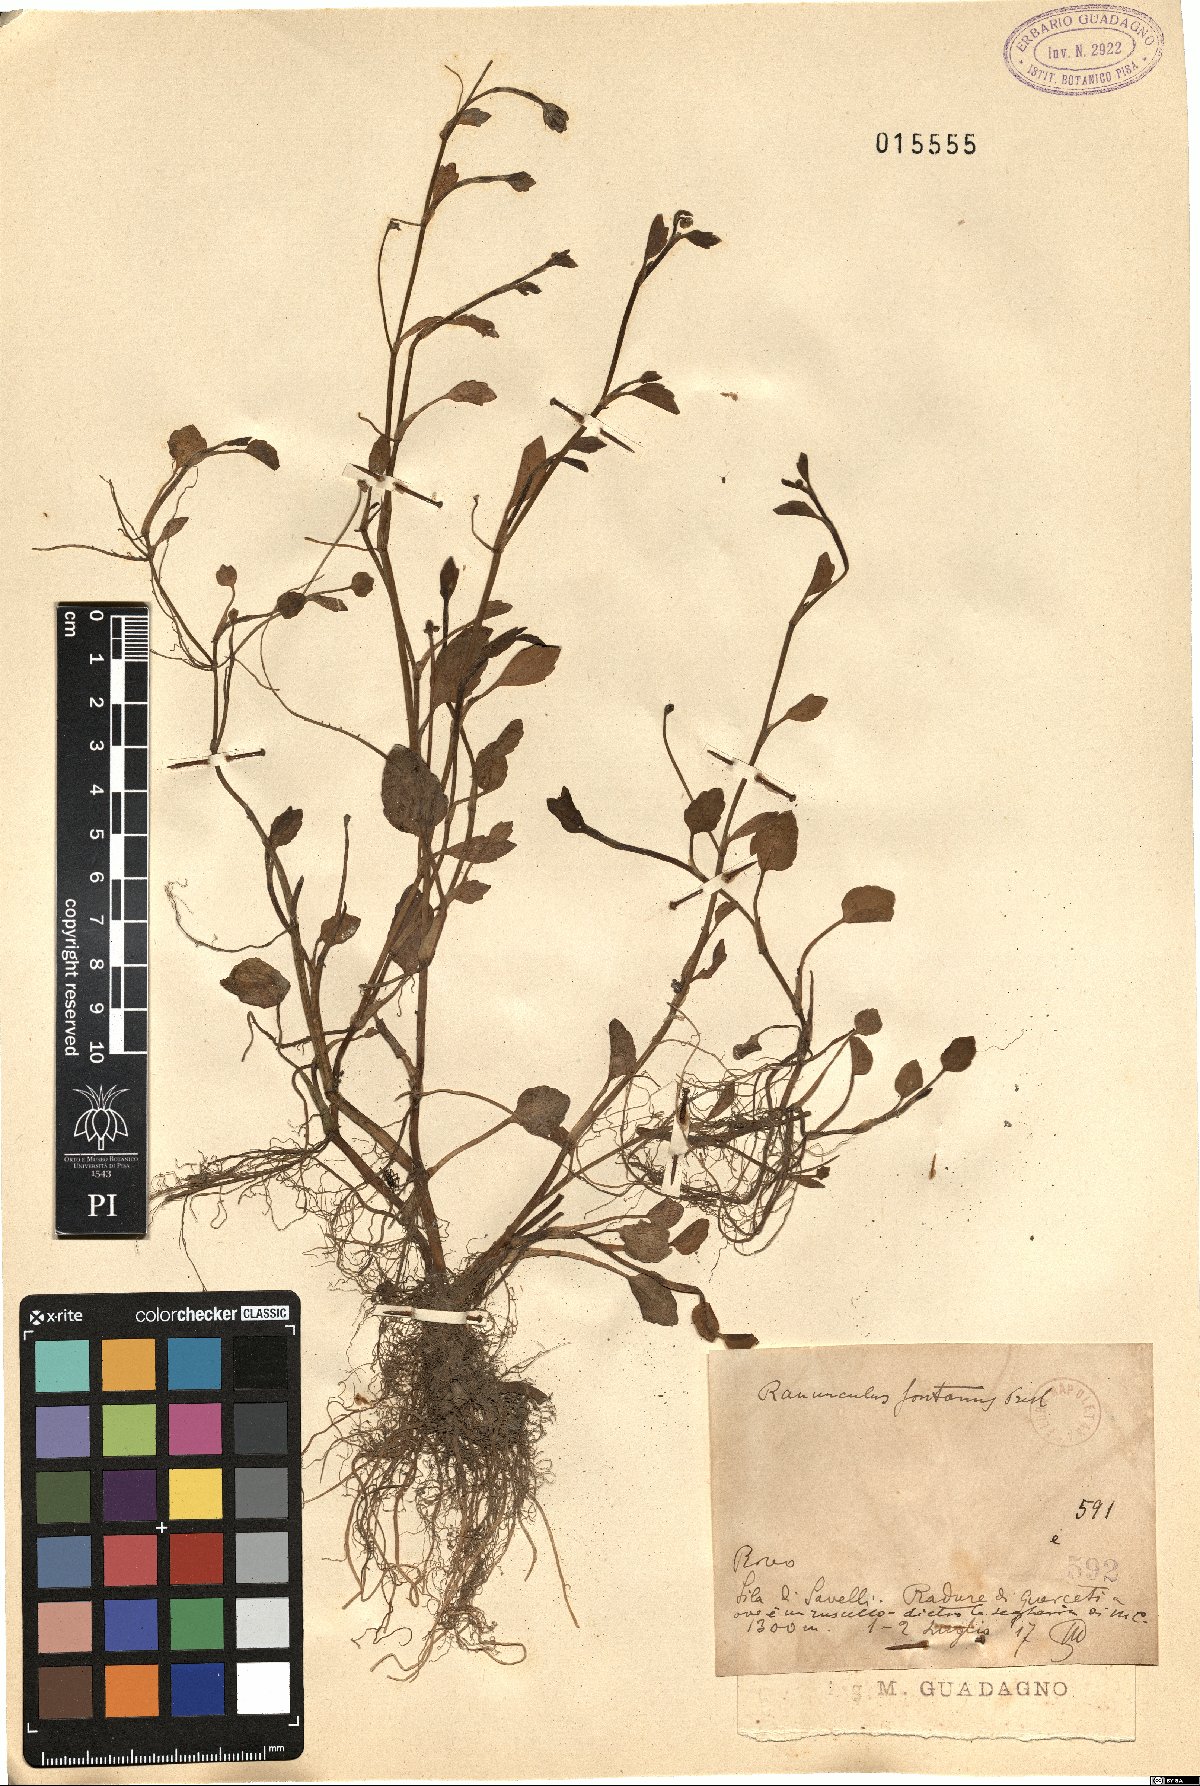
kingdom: Plantae
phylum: Tracheophyta
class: Magnoliopsida
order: Ranunculales
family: Ranunculaceae
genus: Ranunculus
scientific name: Ranunculus fontanus
